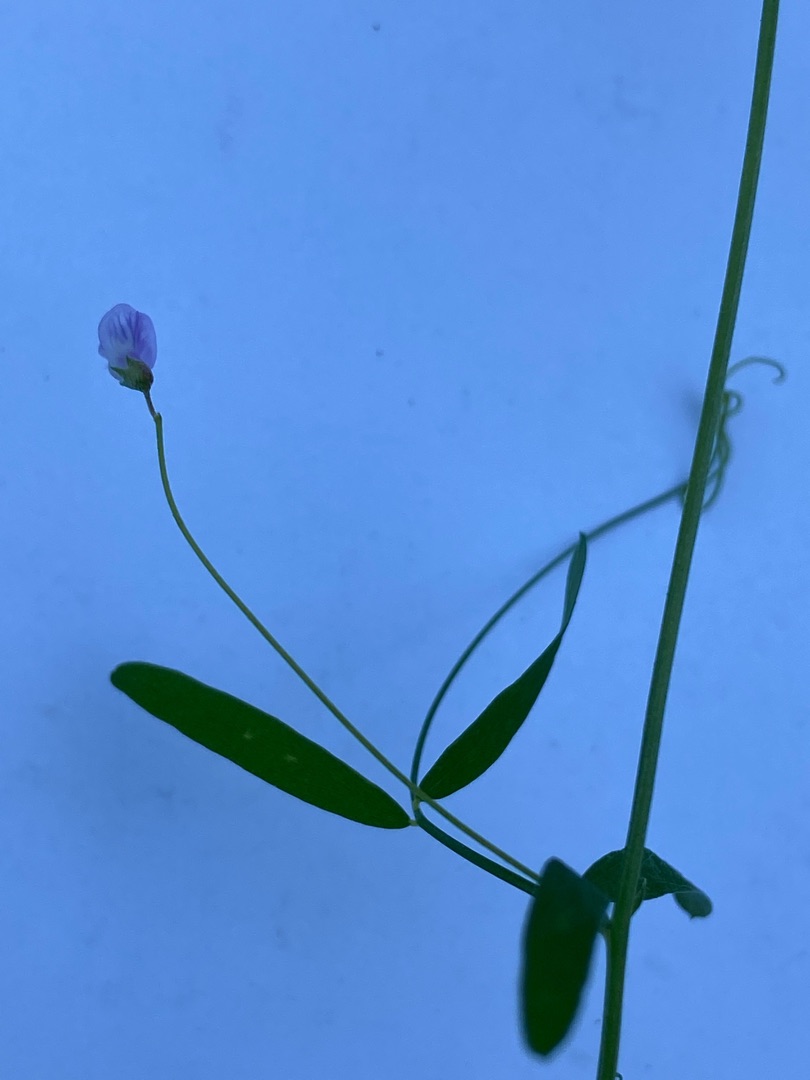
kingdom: Plantae
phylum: Tracheophyta
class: Magnoliopsida
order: Fabales
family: Fabaceae
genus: Vicia
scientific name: Vicia
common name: Vikkeslægten
